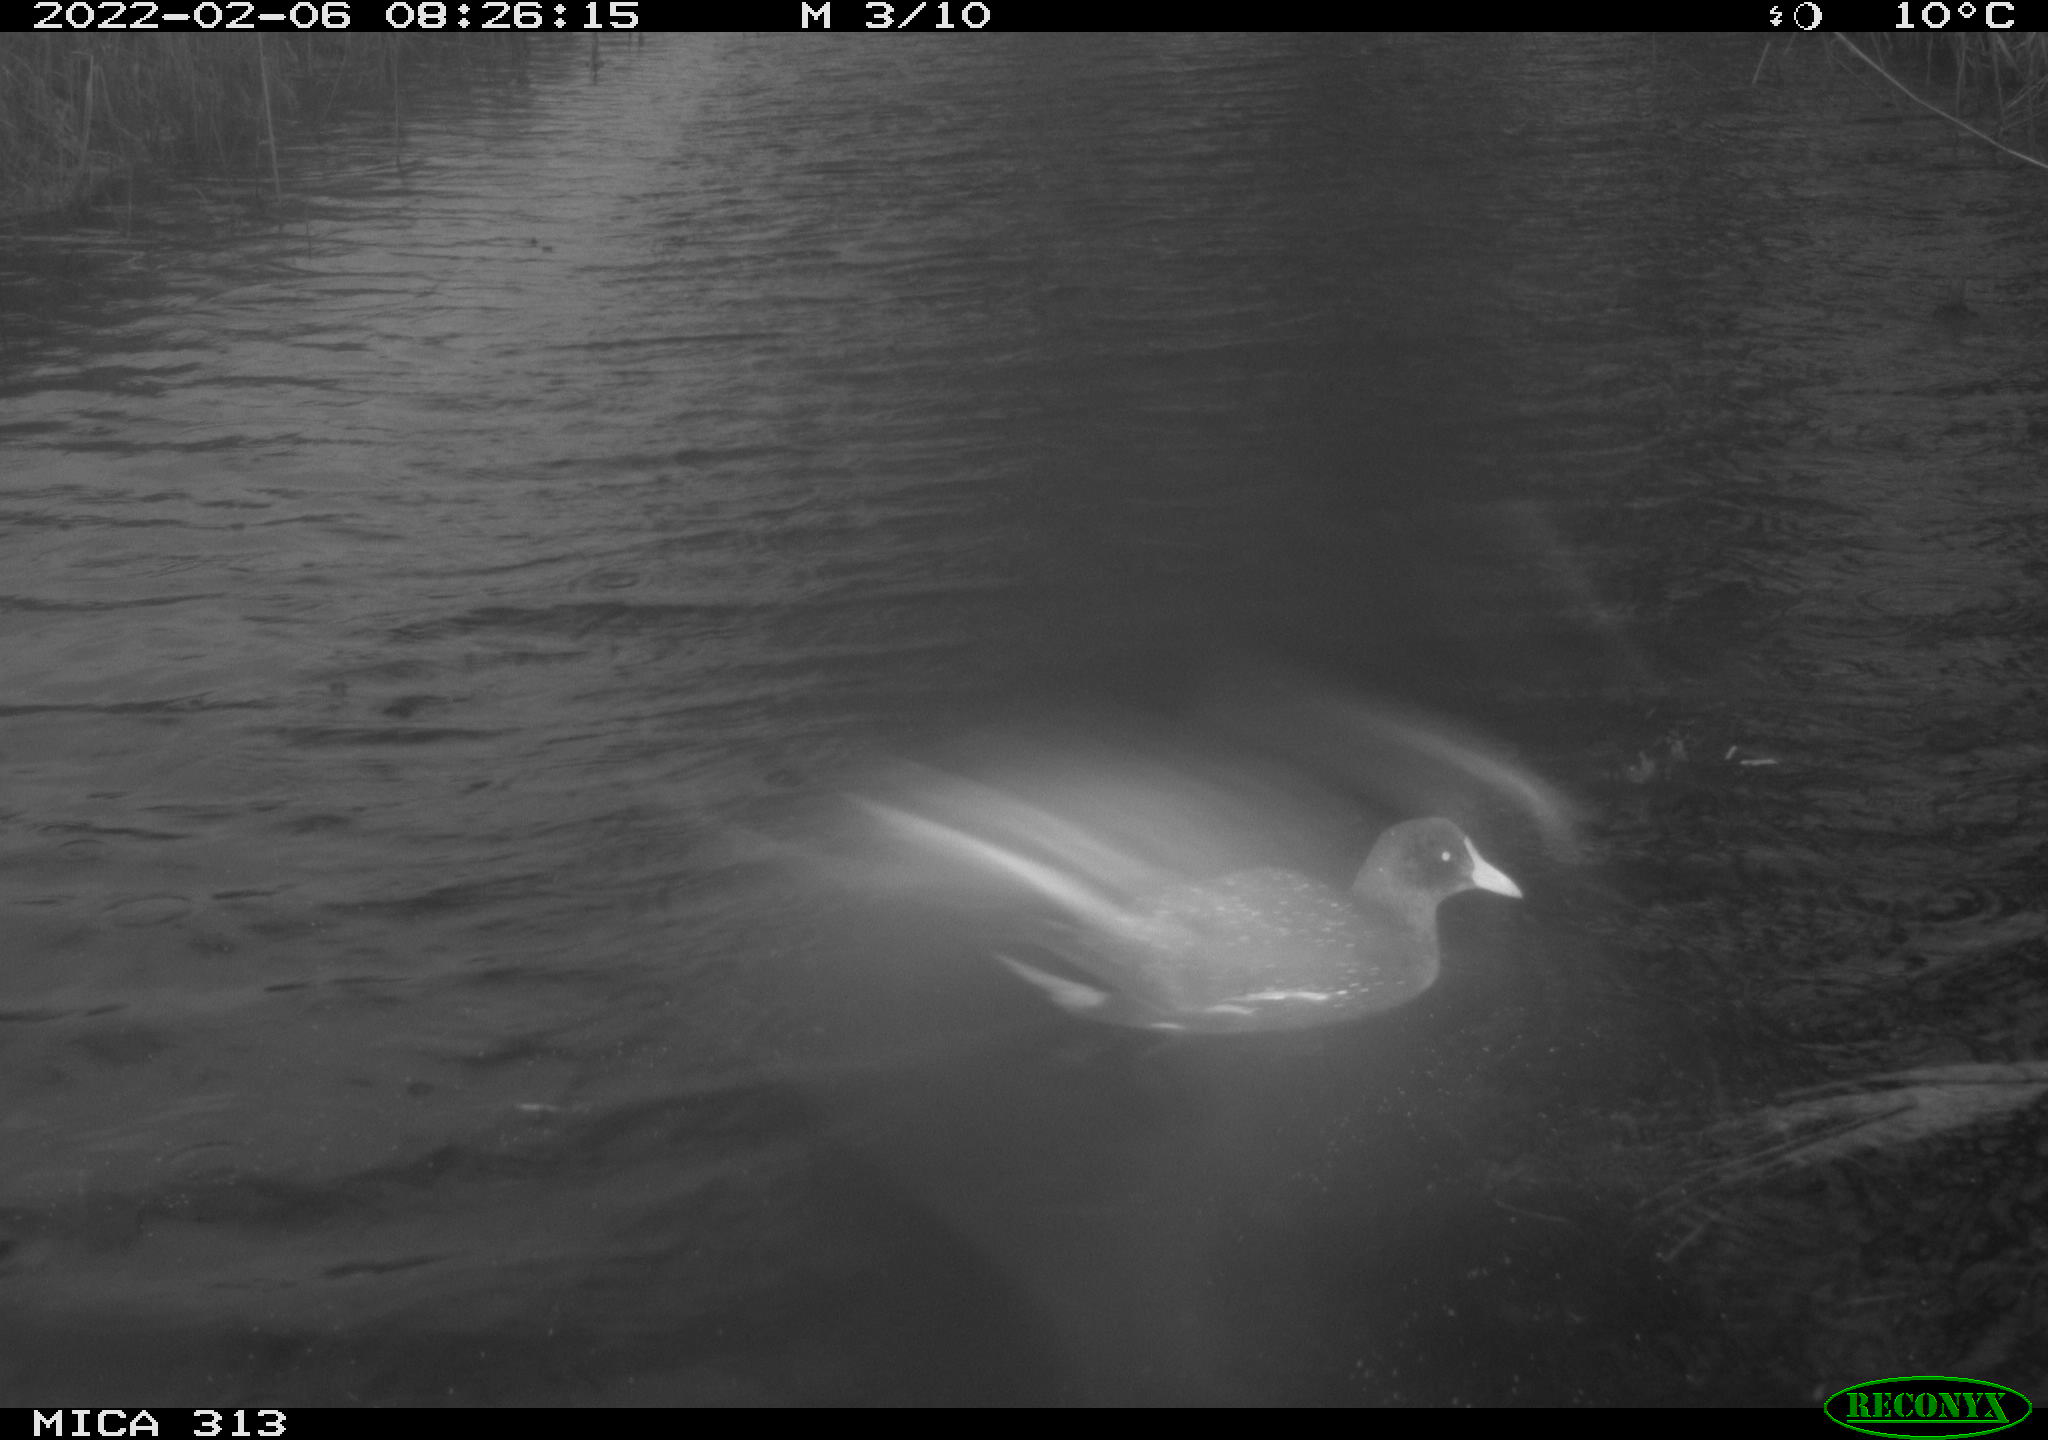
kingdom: Animalia
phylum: Chordata
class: Aves
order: Gruiformes
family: Rallidae
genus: Gallinula
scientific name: Gallinula chloropus
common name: Common moorhen
